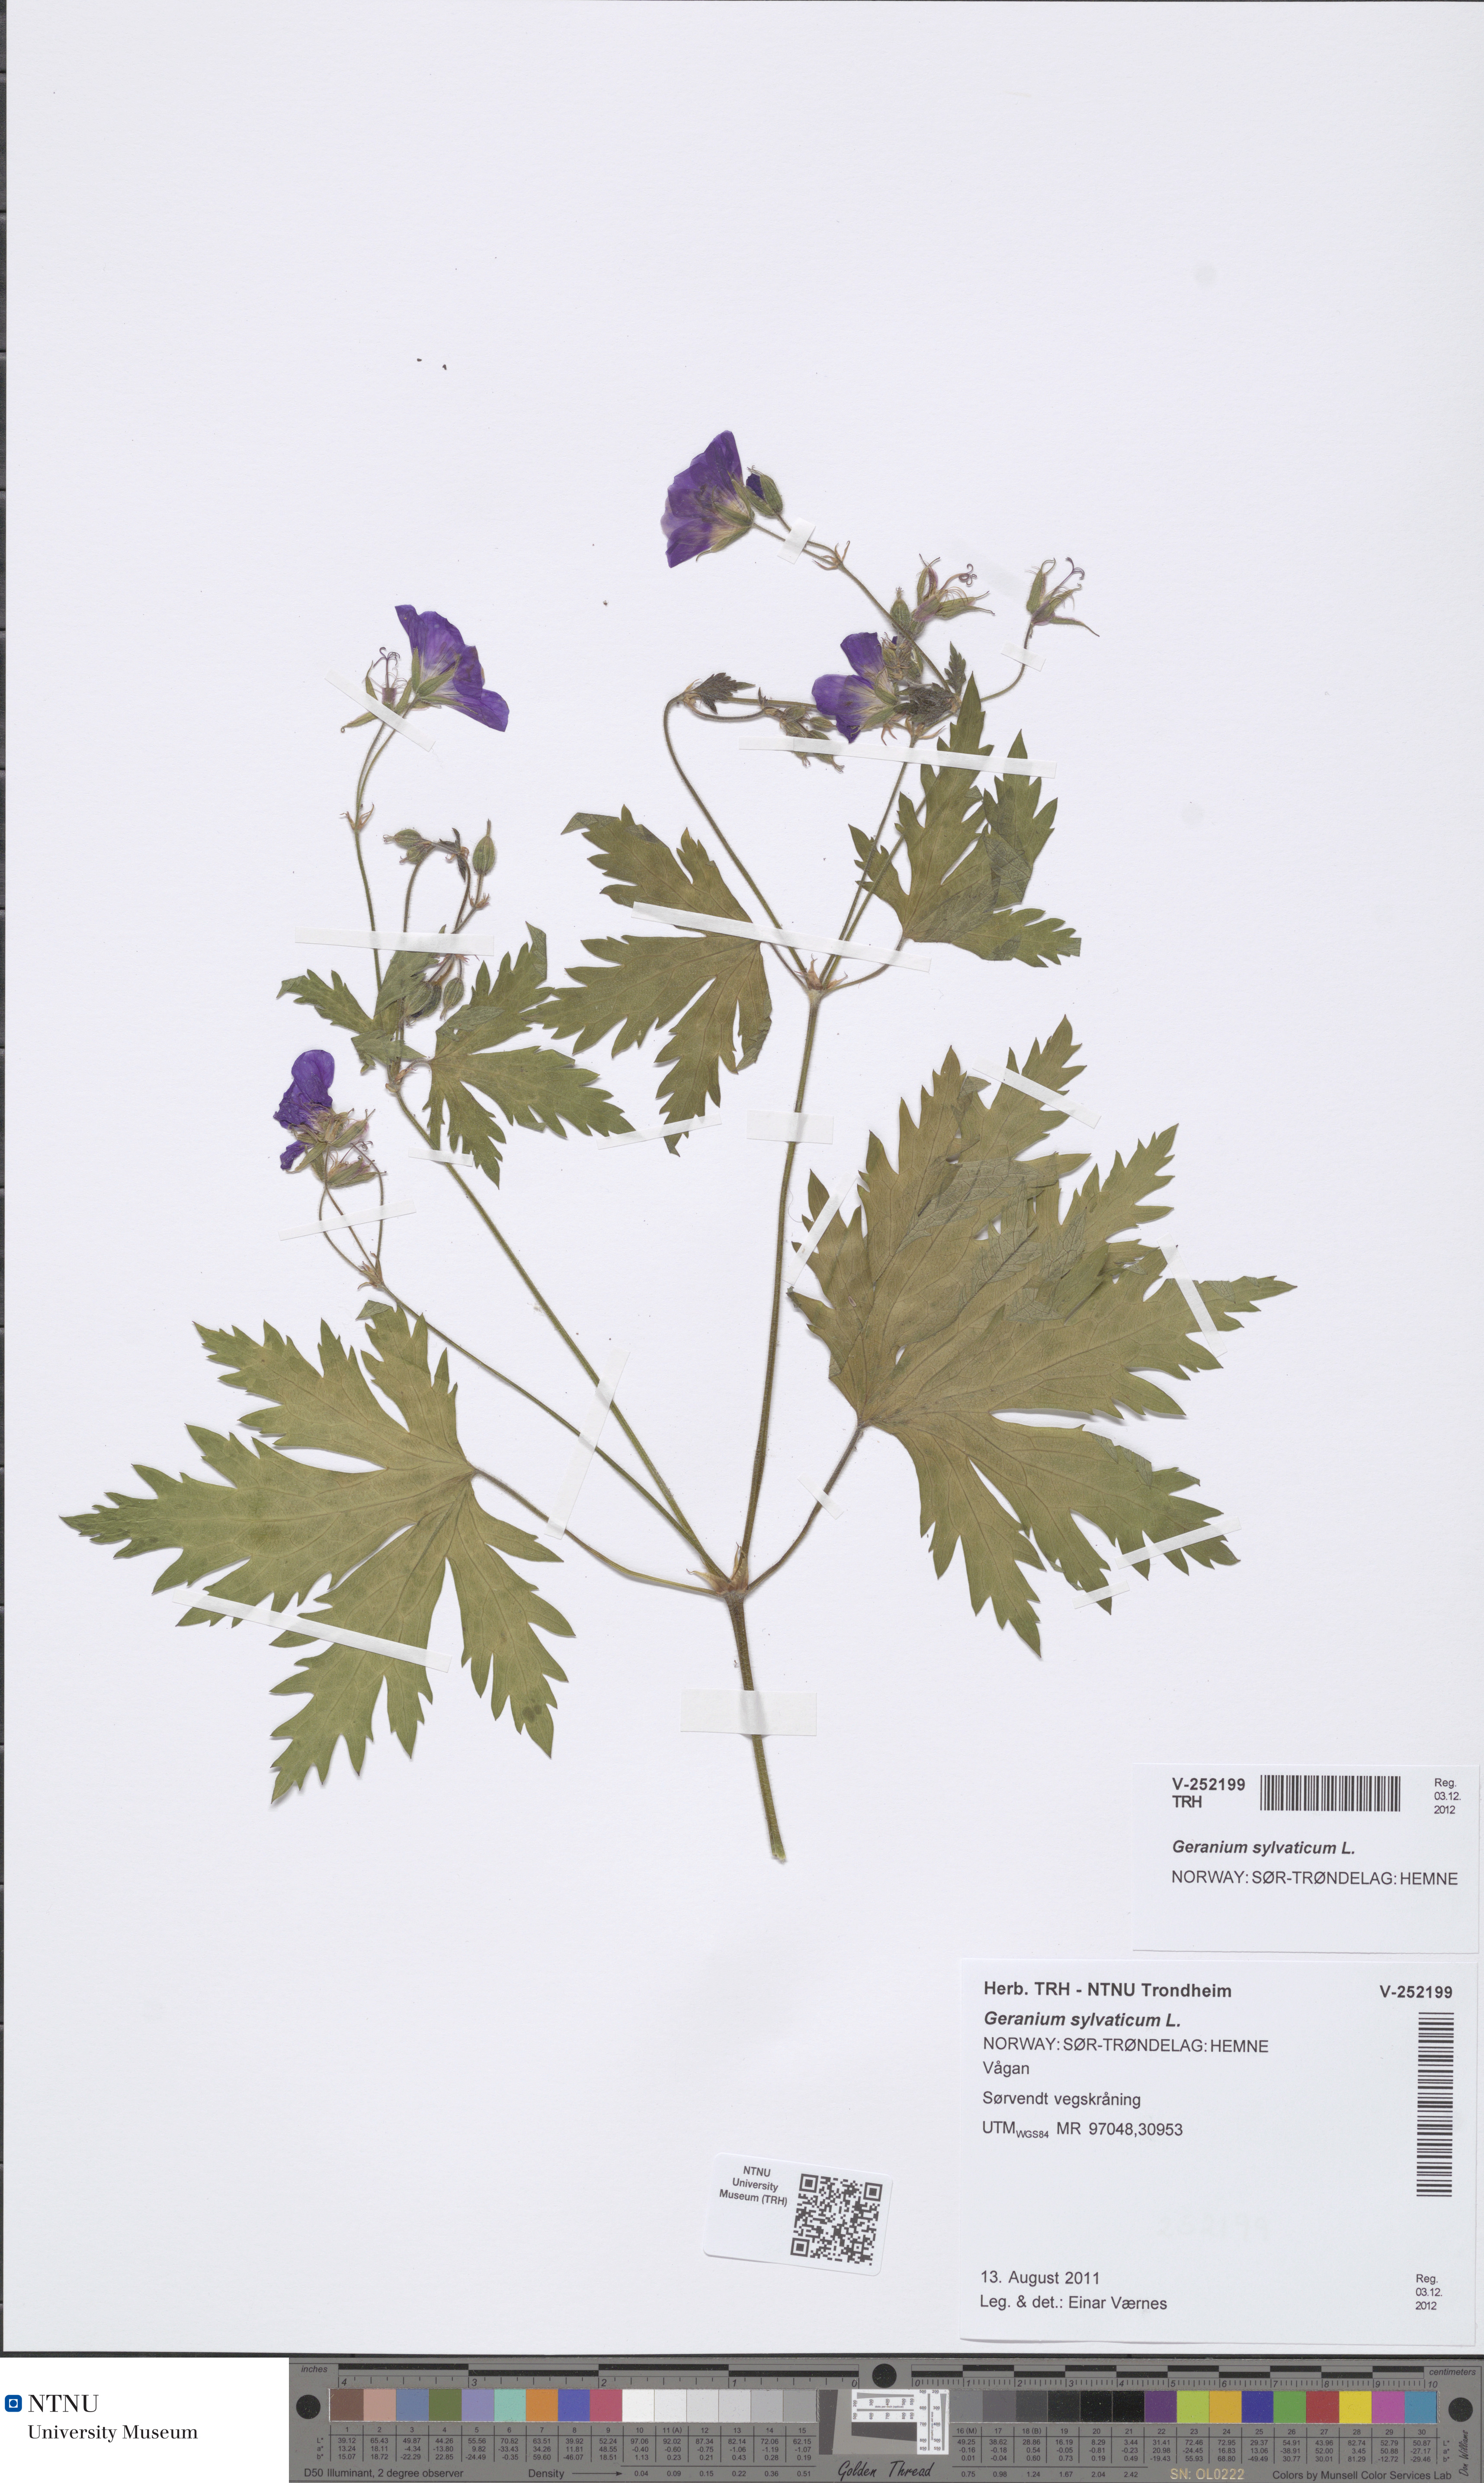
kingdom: Plantae
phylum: Tracheophyta
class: Magnoliopsida
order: Geraniales
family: Geraniaceae
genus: Geranium
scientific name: Geranium sylvaticum
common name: Wood crane's-bill
